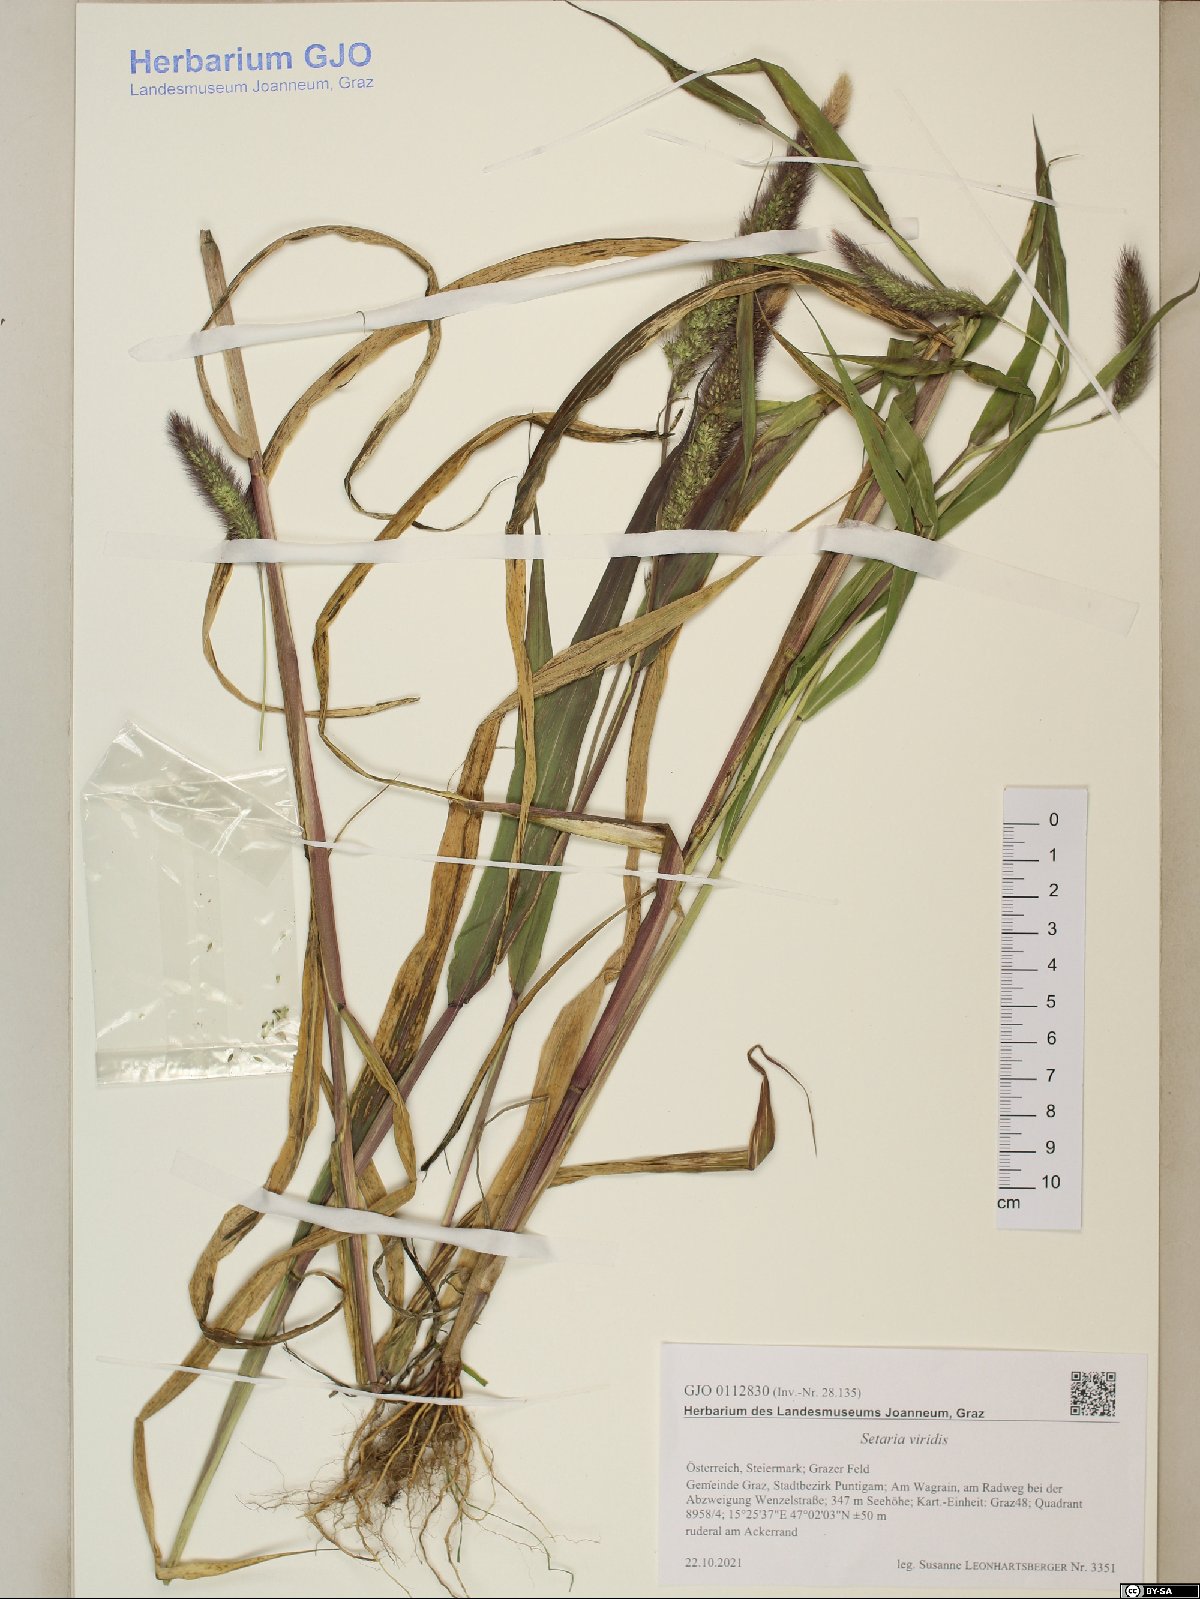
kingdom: Plantae
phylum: Tracheophyta
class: Liliopsida
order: Poales
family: Poaceae
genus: Setaria
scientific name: Setaria viridis
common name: Green bristlegrass
